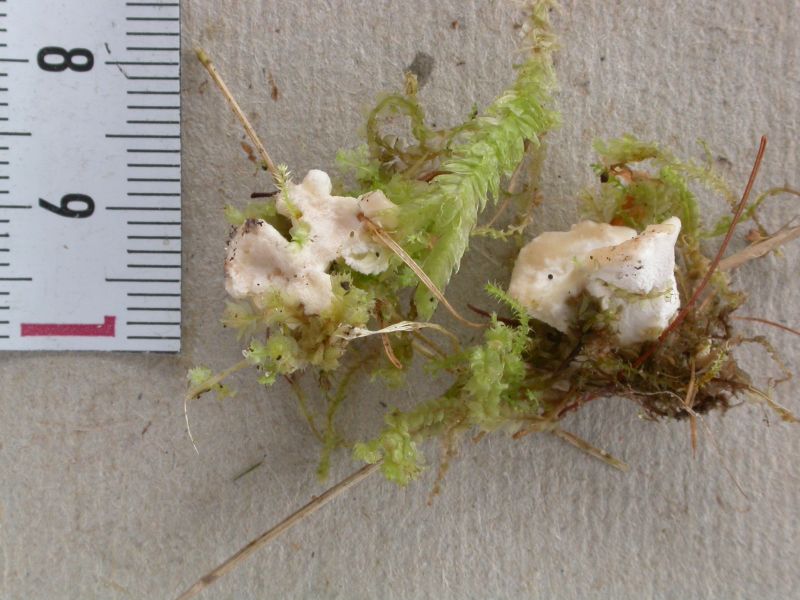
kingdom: Fungi
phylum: Basidiomycota
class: Agaricomycetes
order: Cantharellales
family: Hydnaceae
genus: Sistotrema
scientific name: Sistotrema confluens
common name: stilket kroneskorpe
